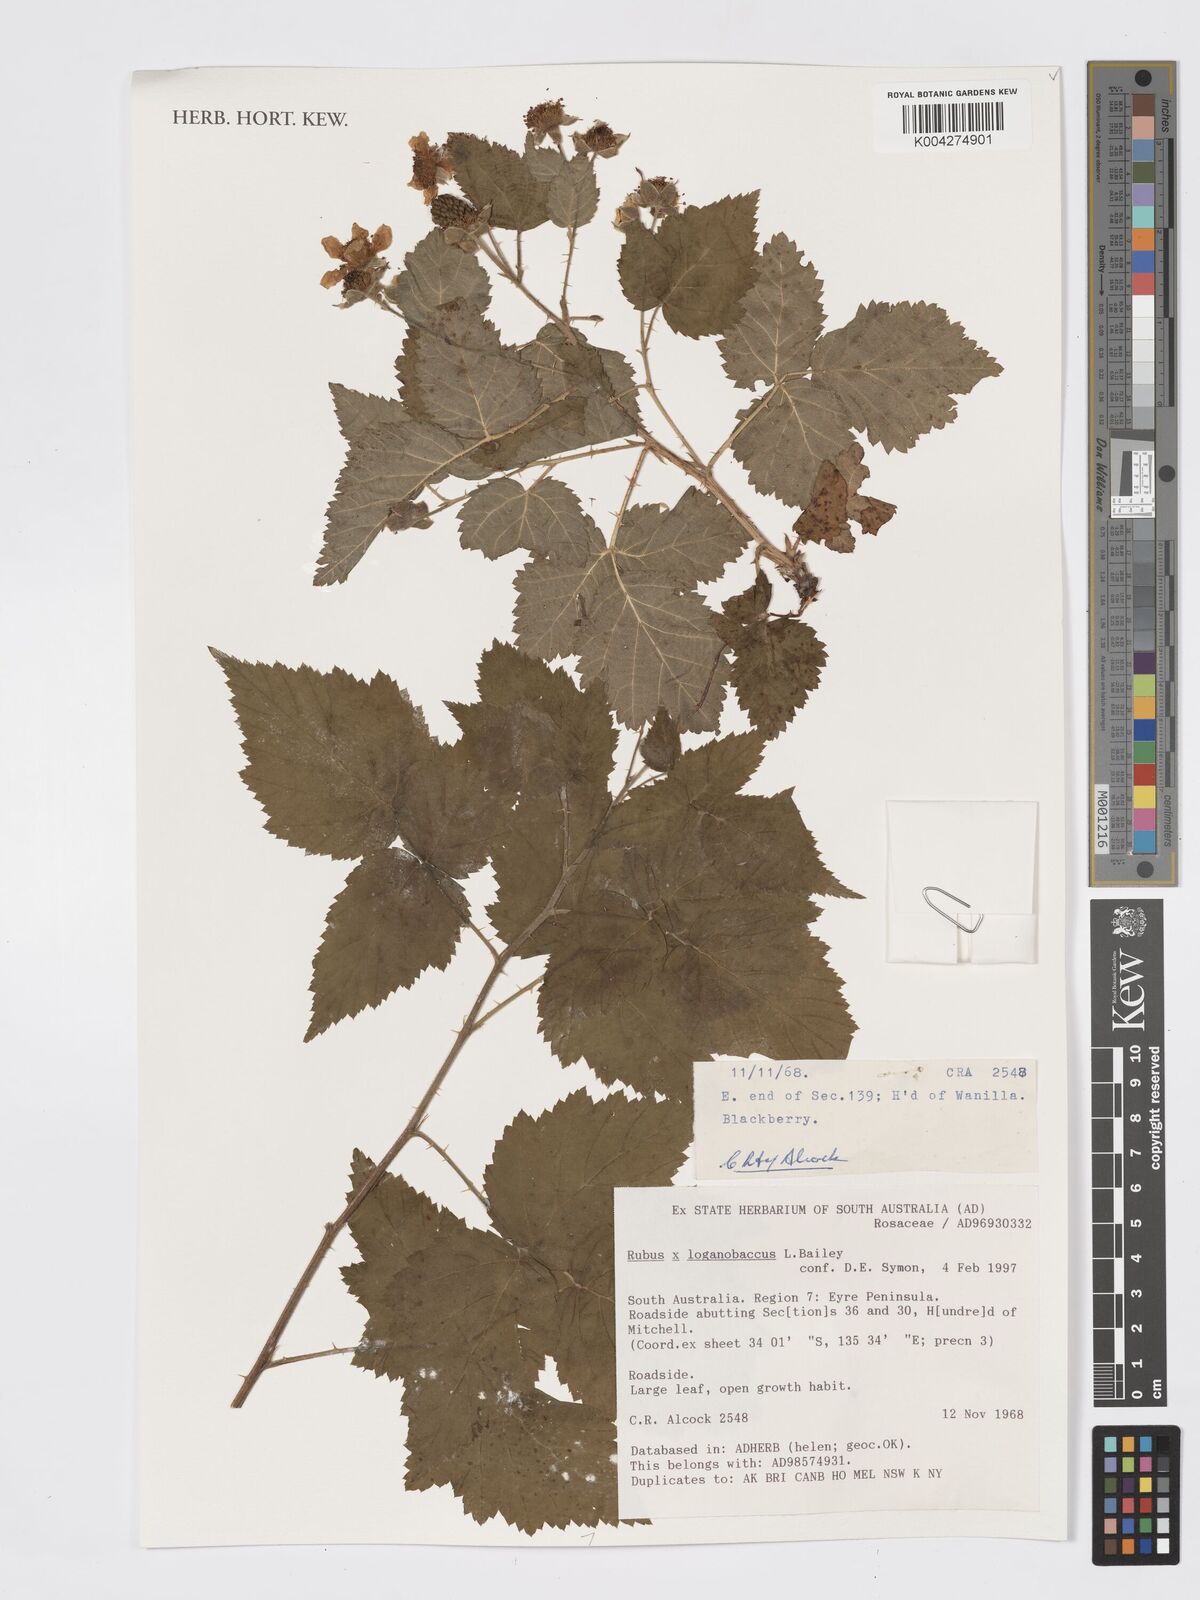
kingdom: Plantae
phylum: Tracheophyta
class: Magnoliopsida
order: Rosales
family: Rosaceae
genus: Rubus
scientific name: Rubus loganobaccus
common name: Loganberry
